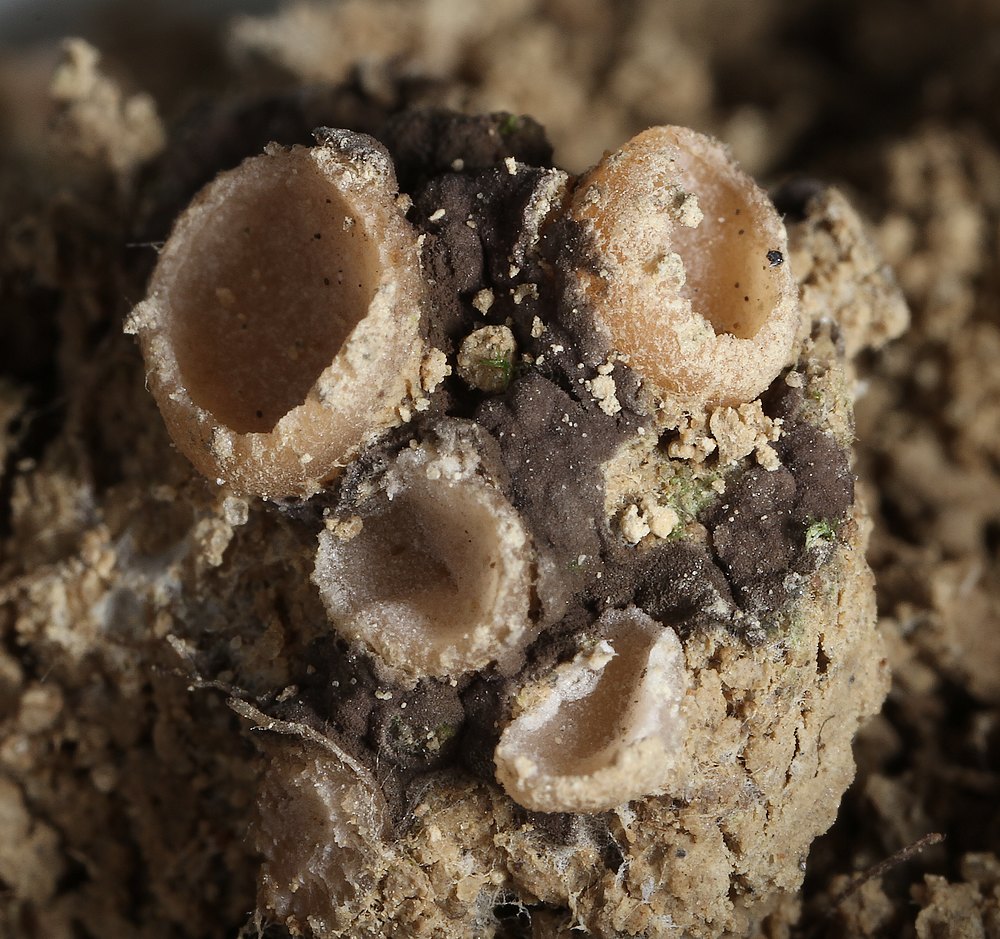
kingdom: Fungi
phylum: Ascomycota
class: Pezizomycetes
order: Pezizales
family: Pyronemataceae
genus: Geopora
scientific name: Geopora semi-immersa
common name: nedsænket børstebæger
